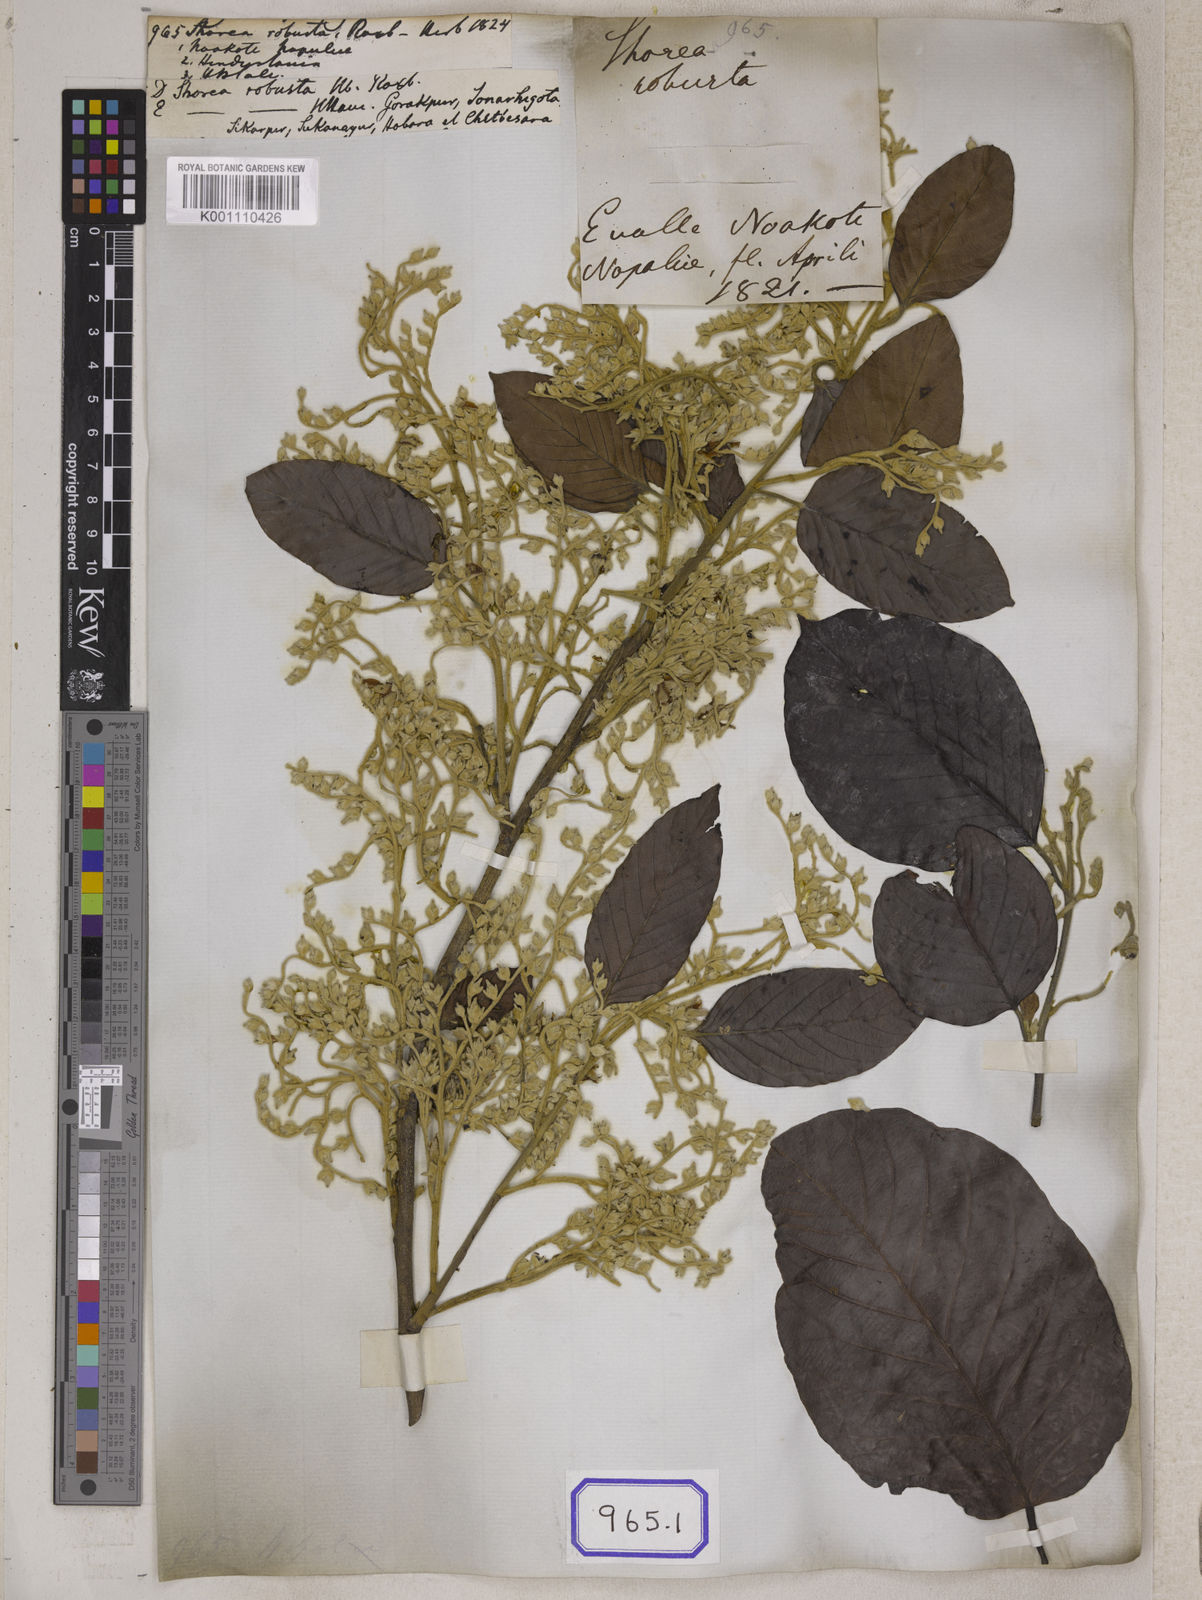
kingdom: Plantae
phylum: Tracheophyta
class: Magnoliopsida
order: Malvales
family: Dipterocarpaceae
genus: Shorea
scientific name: Shorea
